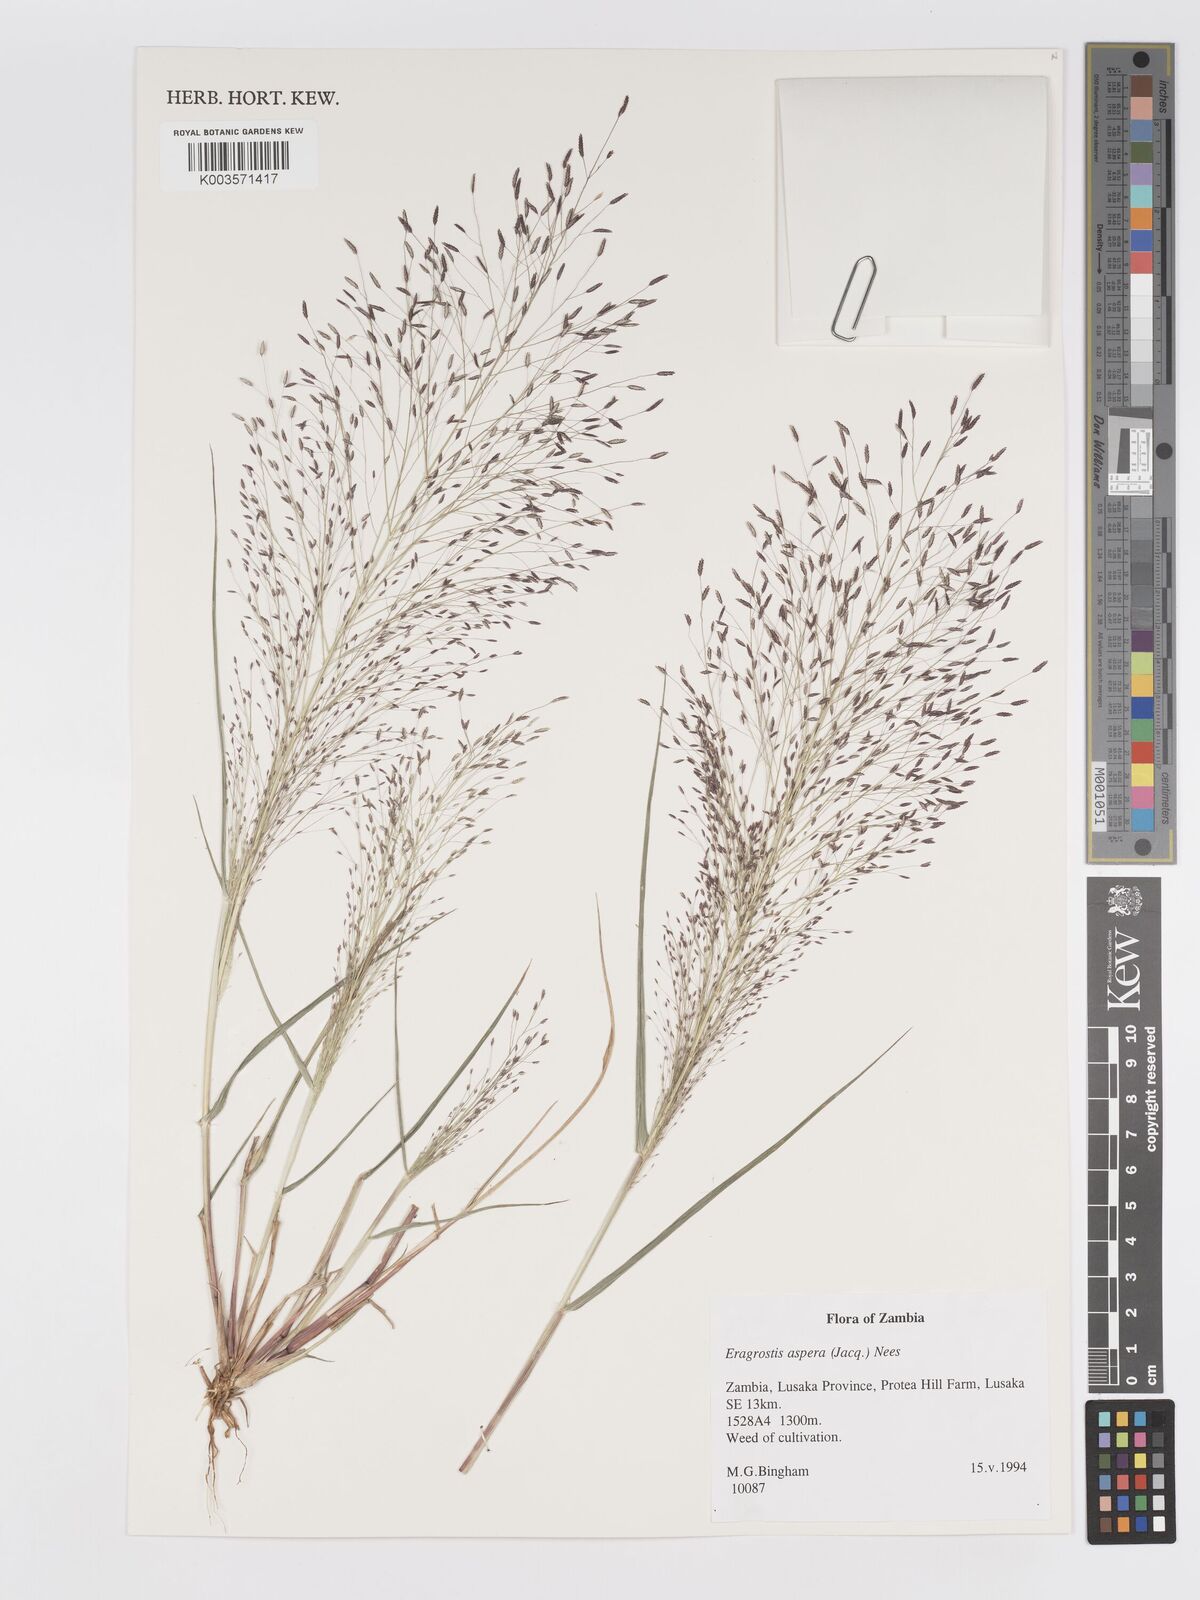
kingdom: Plantae
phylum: Tracheophyta
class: Liliopsida
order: Poales
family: Poaceae
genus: Eragrostis
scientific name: Eragrostis aspera
